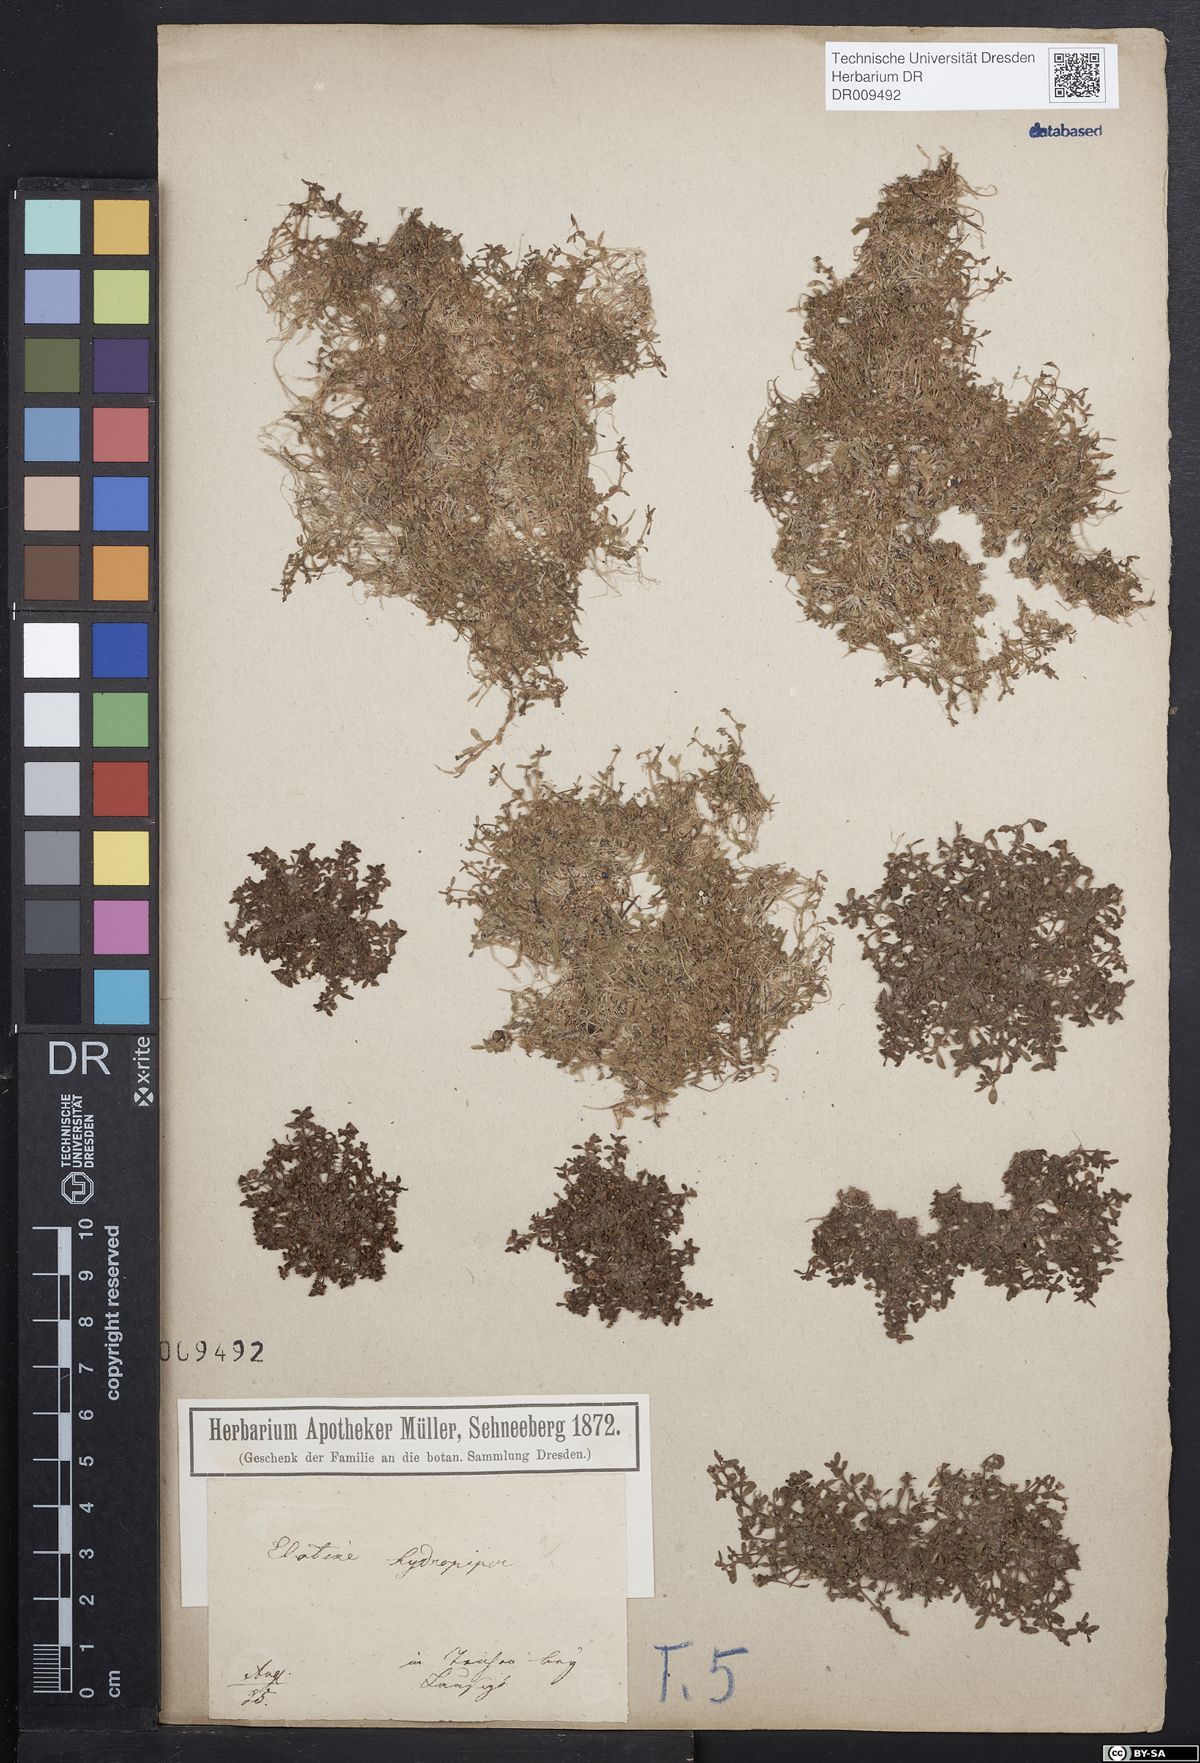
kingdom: Plantae
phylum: Tracheophyta
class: Magnoliopsida
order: Malpighiales
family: Elatinaceae
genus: Elatine
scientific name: Elatine hydropiper
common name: Eight-stamened waterwort
